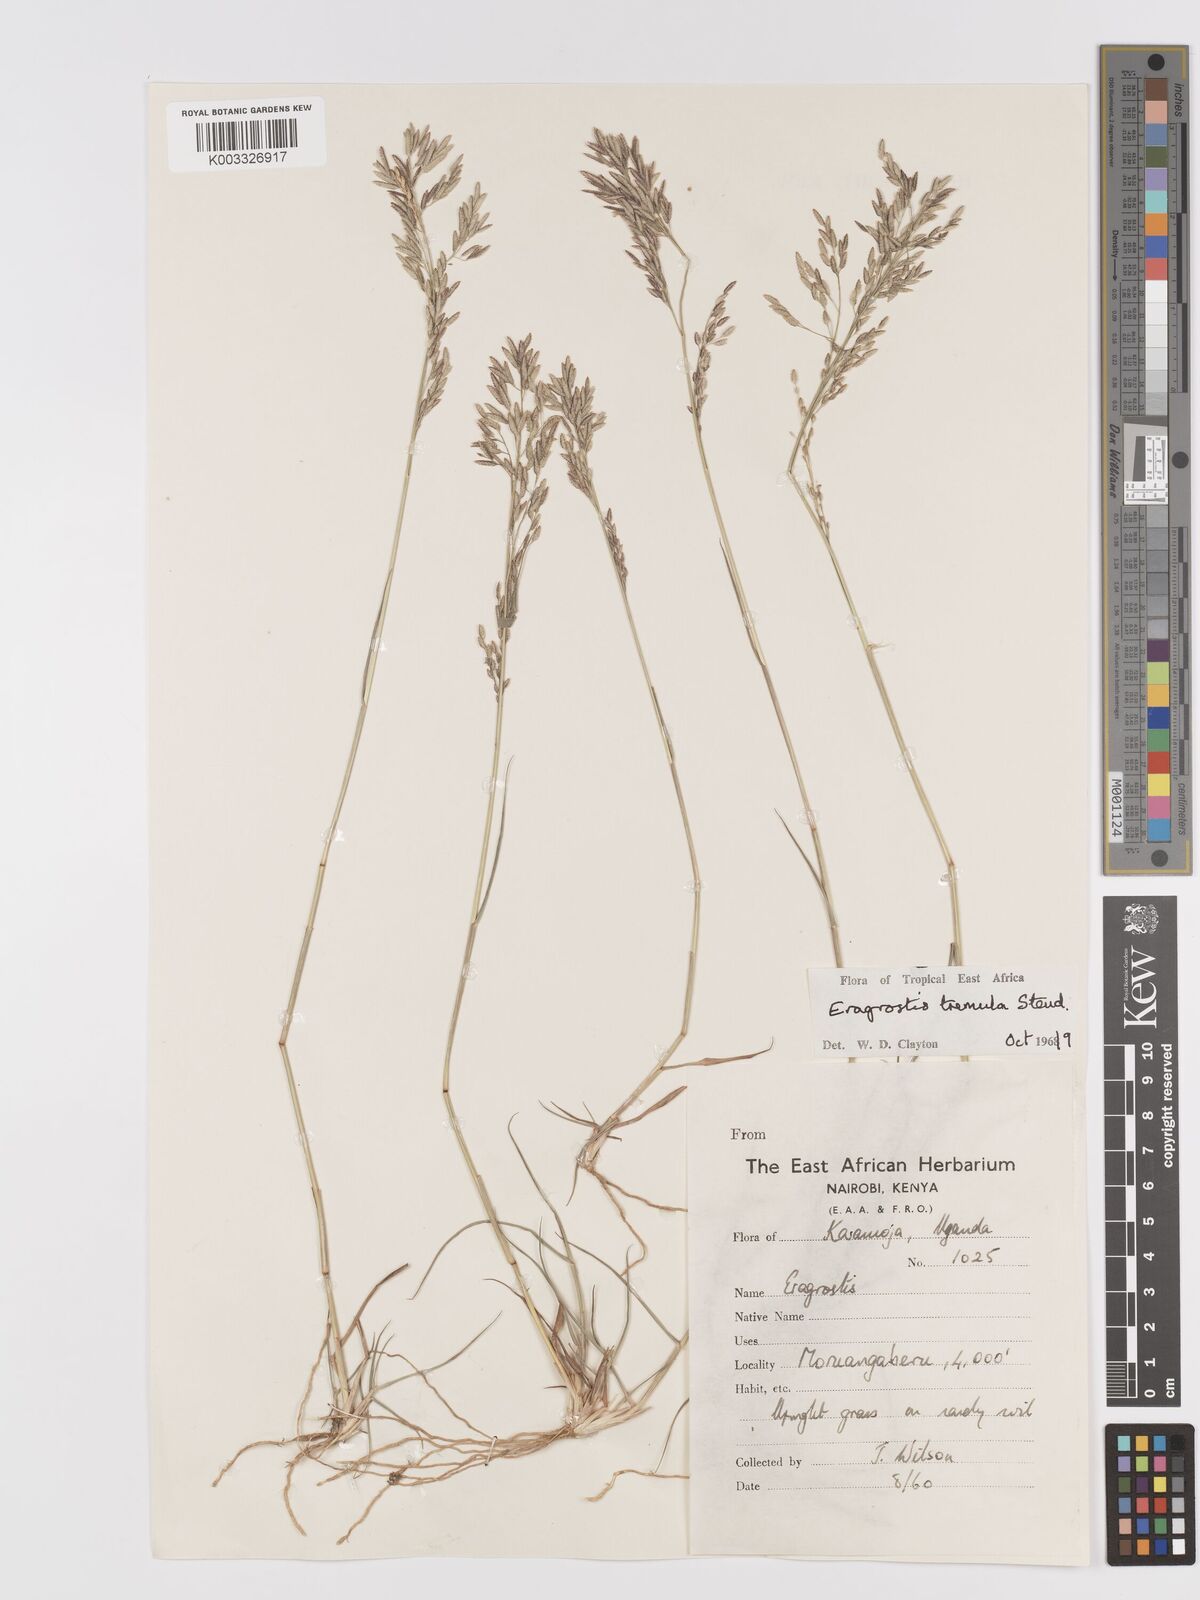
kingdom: Plantae
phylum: Tracheophyta
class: Liliopsida
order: Poales
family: Poaceae
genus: Eragrostis
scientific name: Eragrostis tremula
